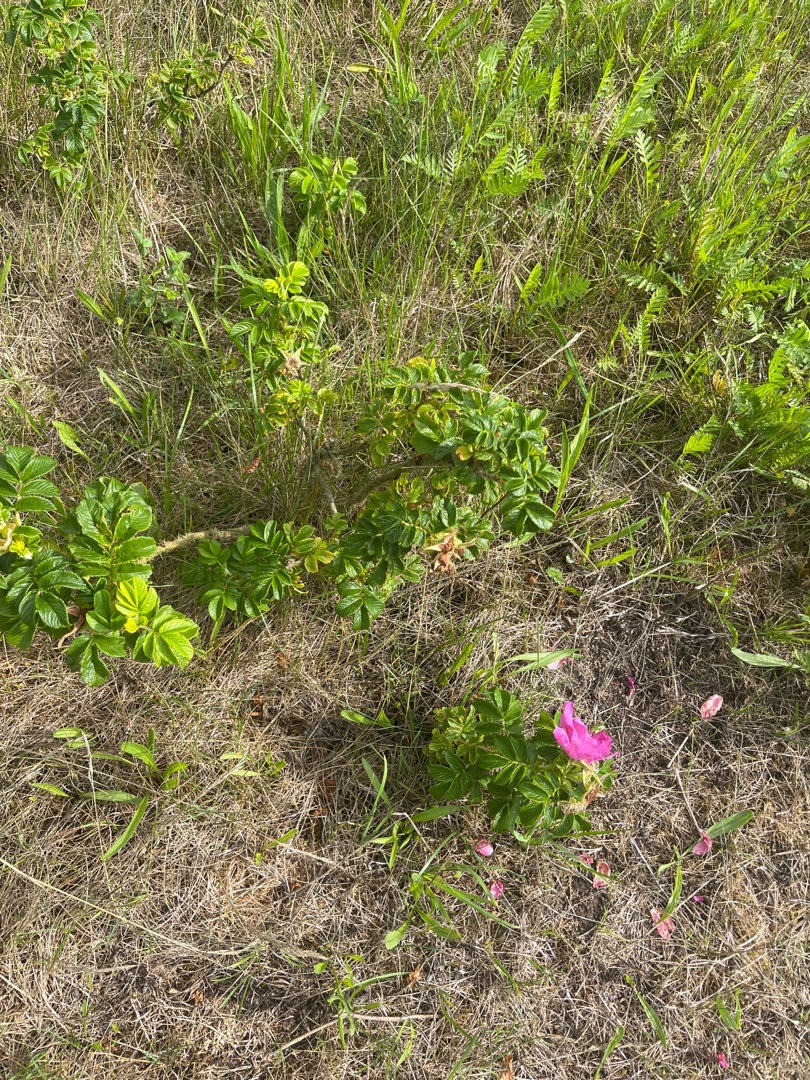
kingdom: Plantae
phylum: Tracheophyta
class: Magnoliopsida
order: Rosales
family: Rosaceae
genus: Rosa
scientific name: Rosa rugosa
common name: Rynket rose
